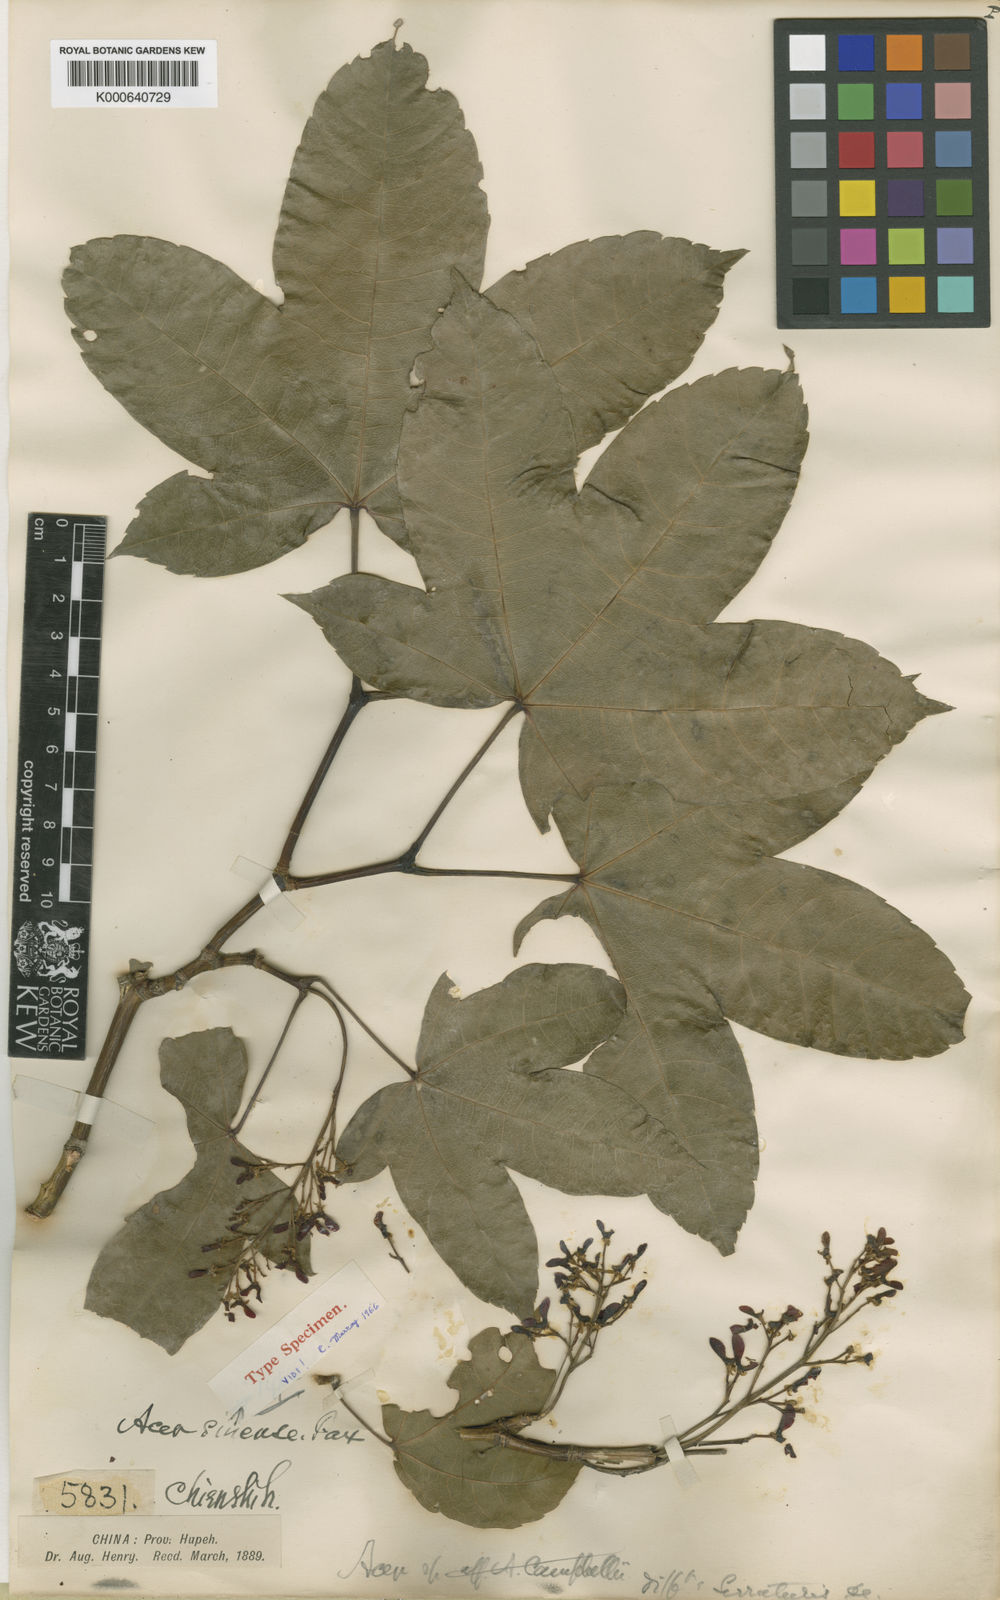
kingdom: Plantae
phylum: Tracheophyta
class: Magnoliopsida
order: Sapindales
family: Sapindaceae
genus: Acer
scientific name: Acer sinense
